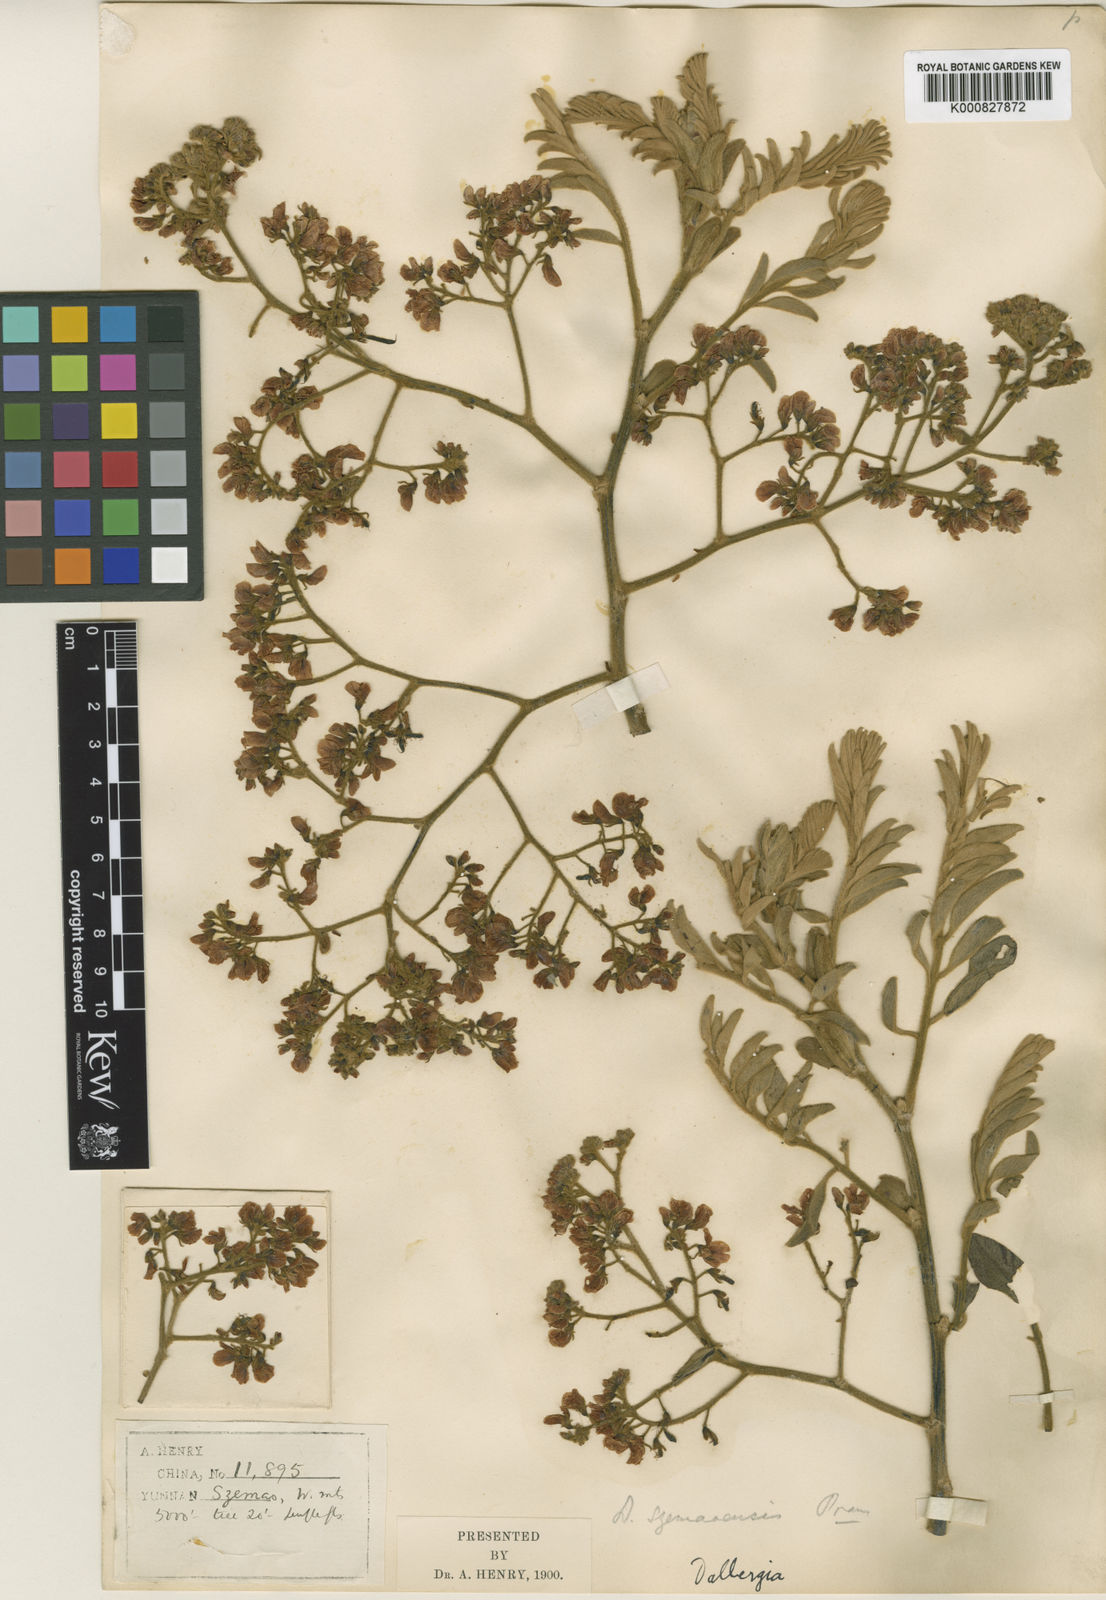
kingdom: Plantae
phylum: Tracheophyta
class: Magnoliopsida
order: Fabales
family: Fabaceae
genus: Dalbergia
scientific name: Dalbergia assamica
